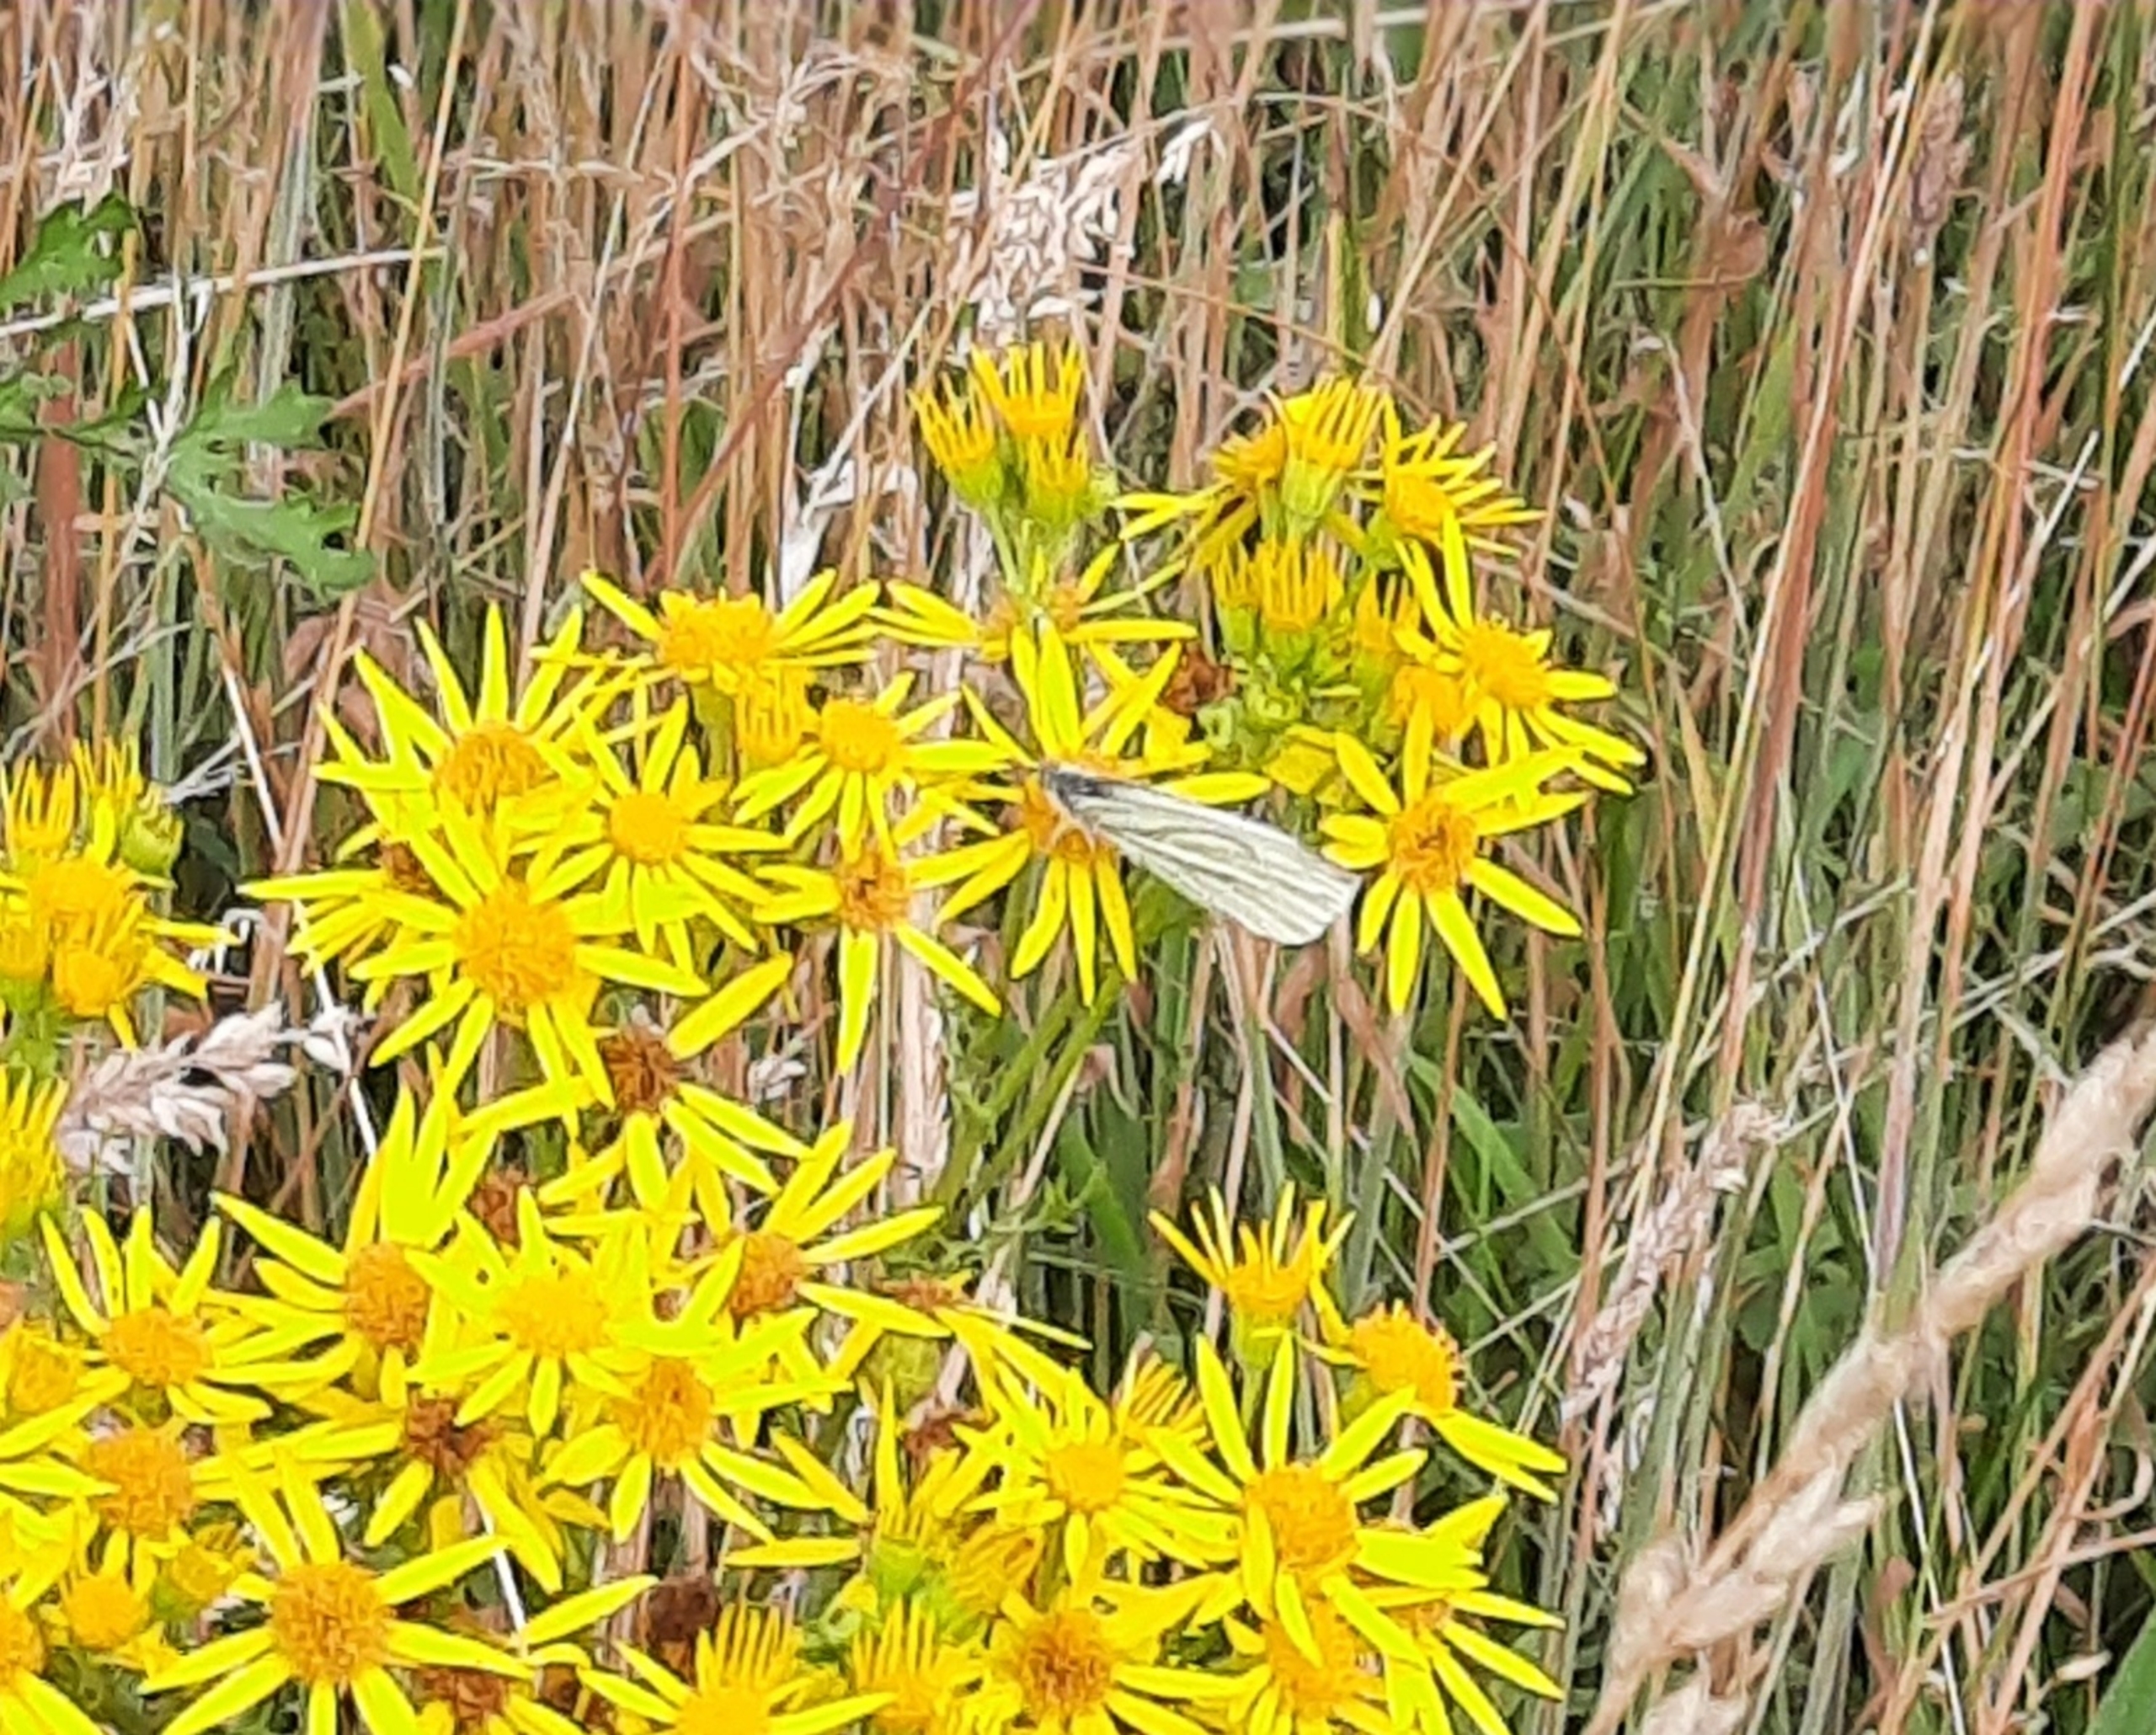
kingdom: Animalia
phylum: Arthropoda
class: Insecta
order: Lepidoptera
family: Pieridae
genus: Pieris
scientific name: Pieris napi
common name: Grønåret kålsommerfugl
